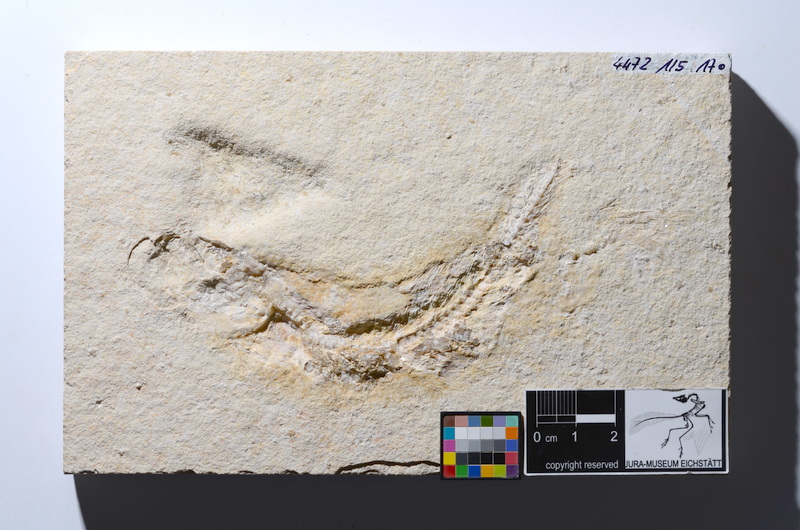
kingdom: Animalia
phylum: Chordata
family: Ascalaboidae
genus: Tharsis
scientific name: Tharsis dubius
